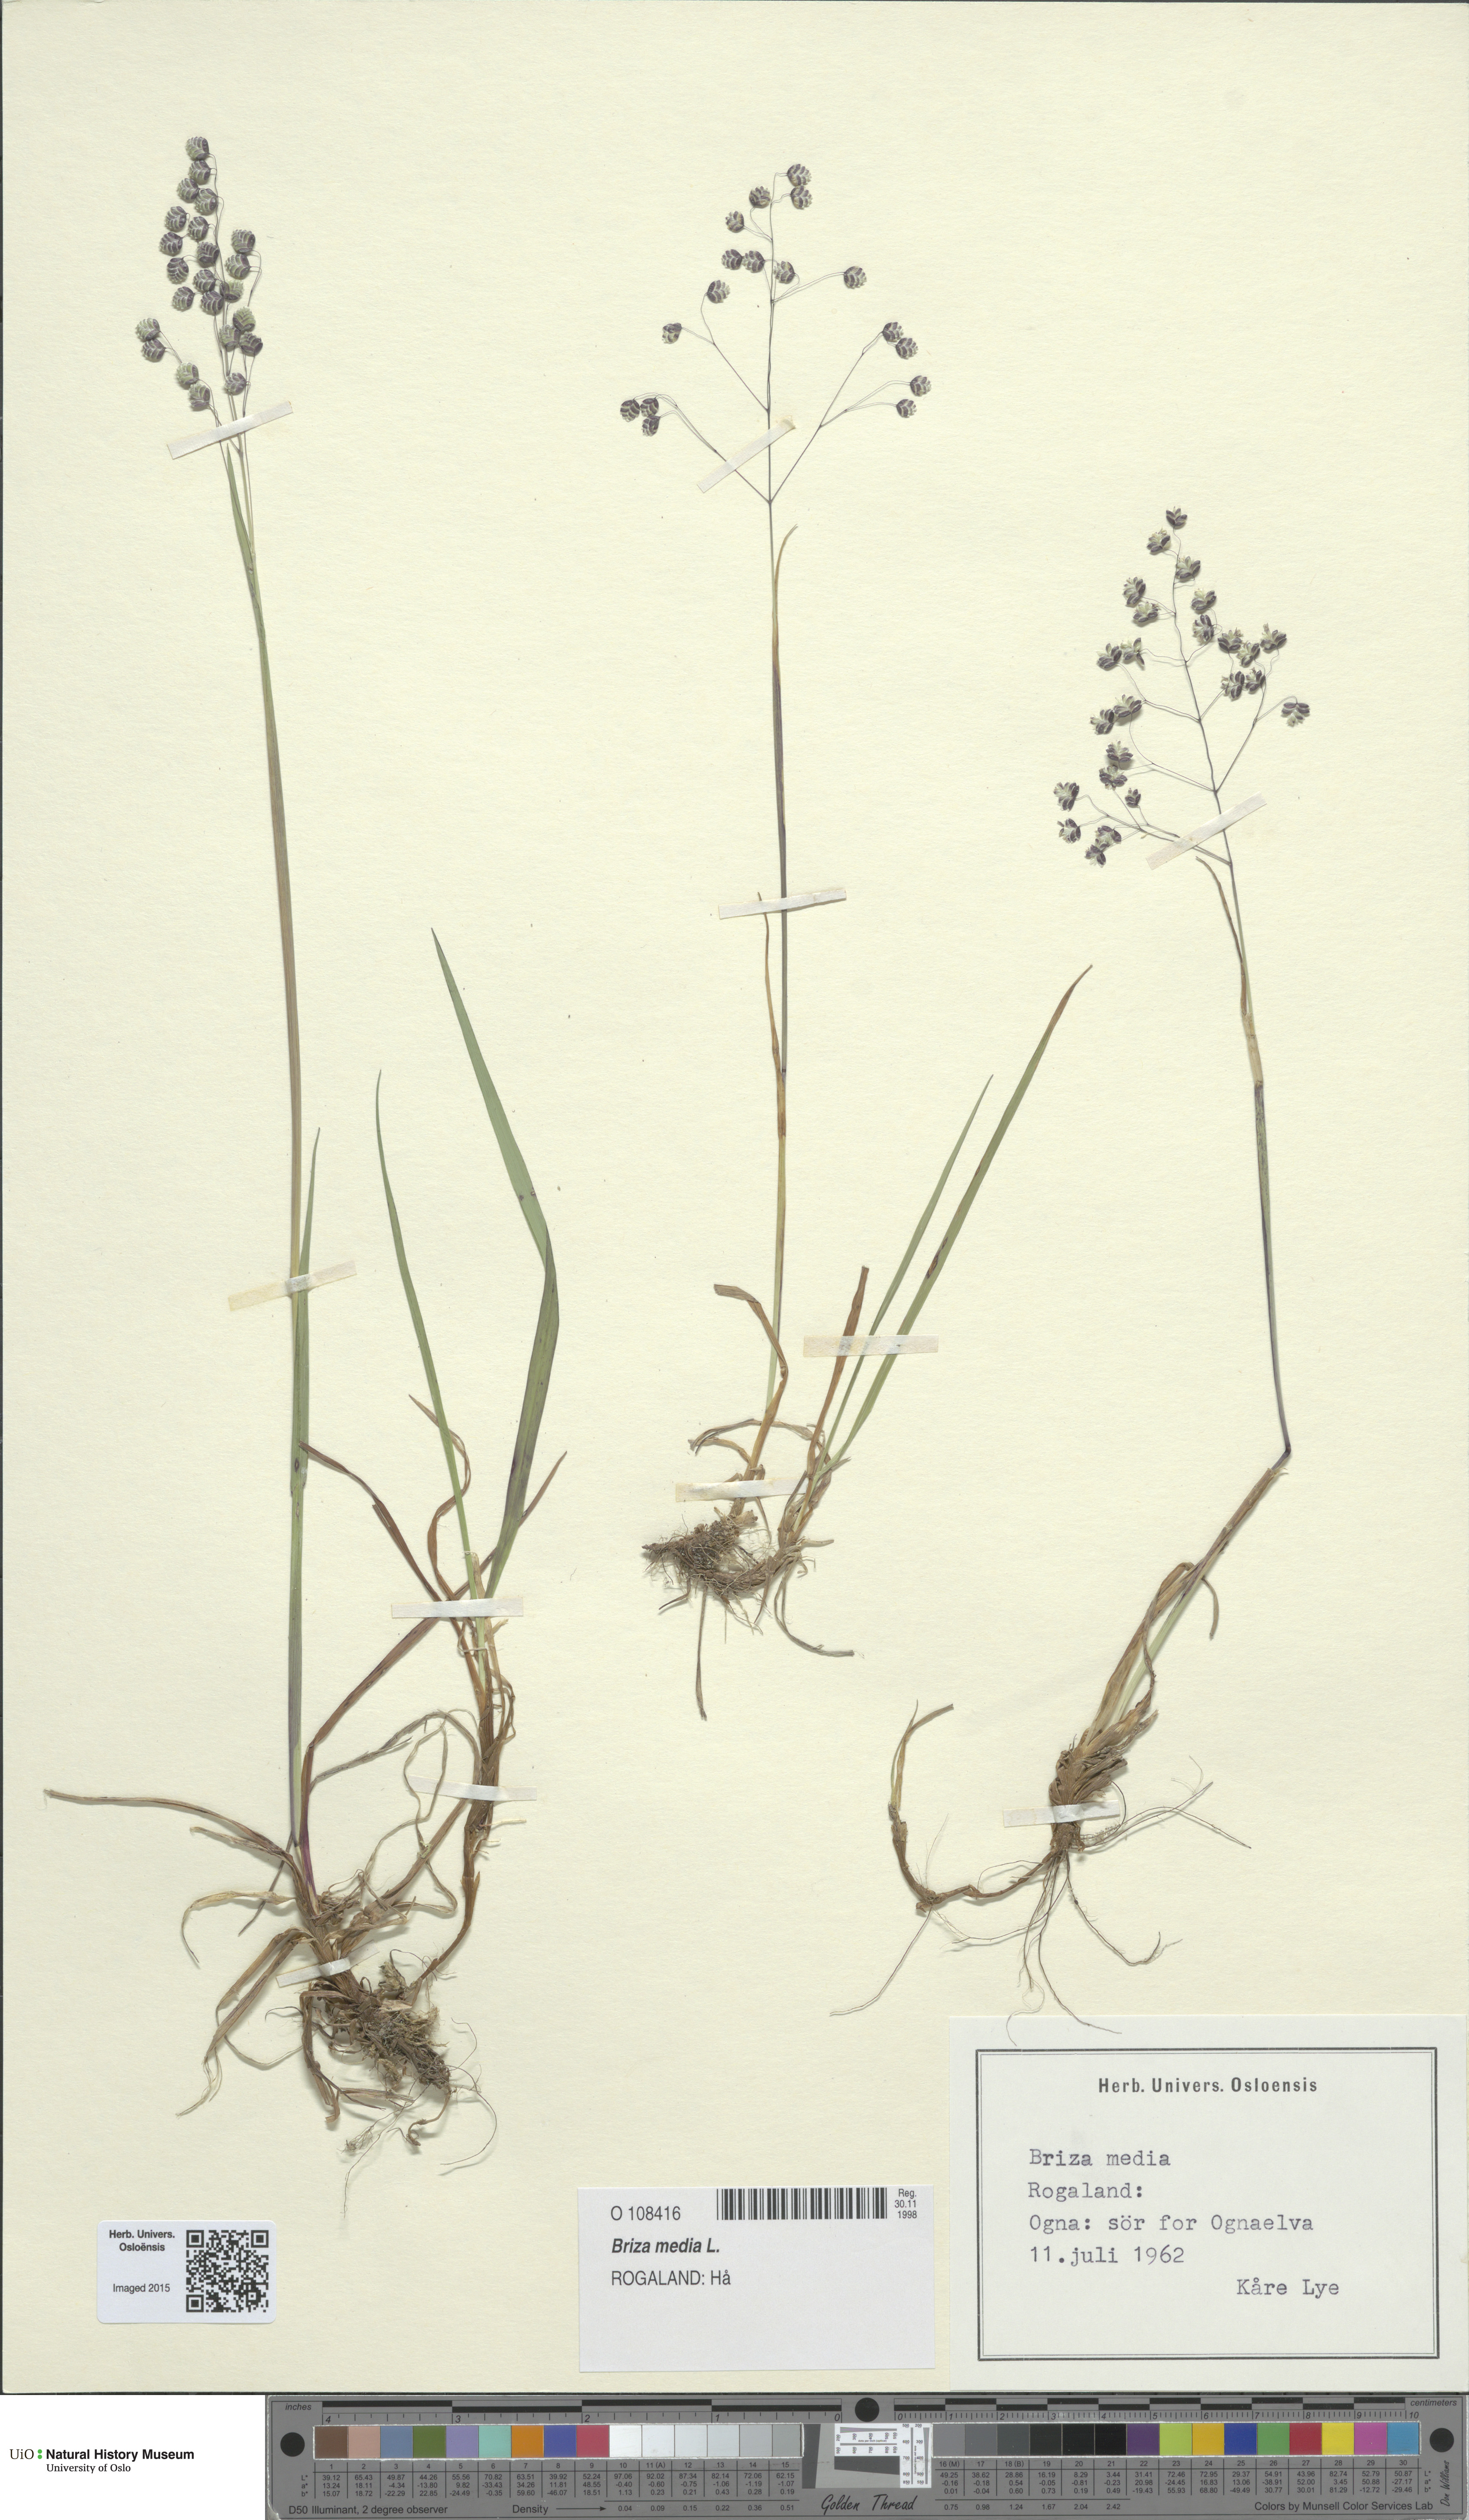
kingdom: Plantae
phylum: Tracheophyta
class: Liliopsida
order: Poales
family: Poaceae
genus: Briza
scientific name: Briza media
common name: Quaking grass
